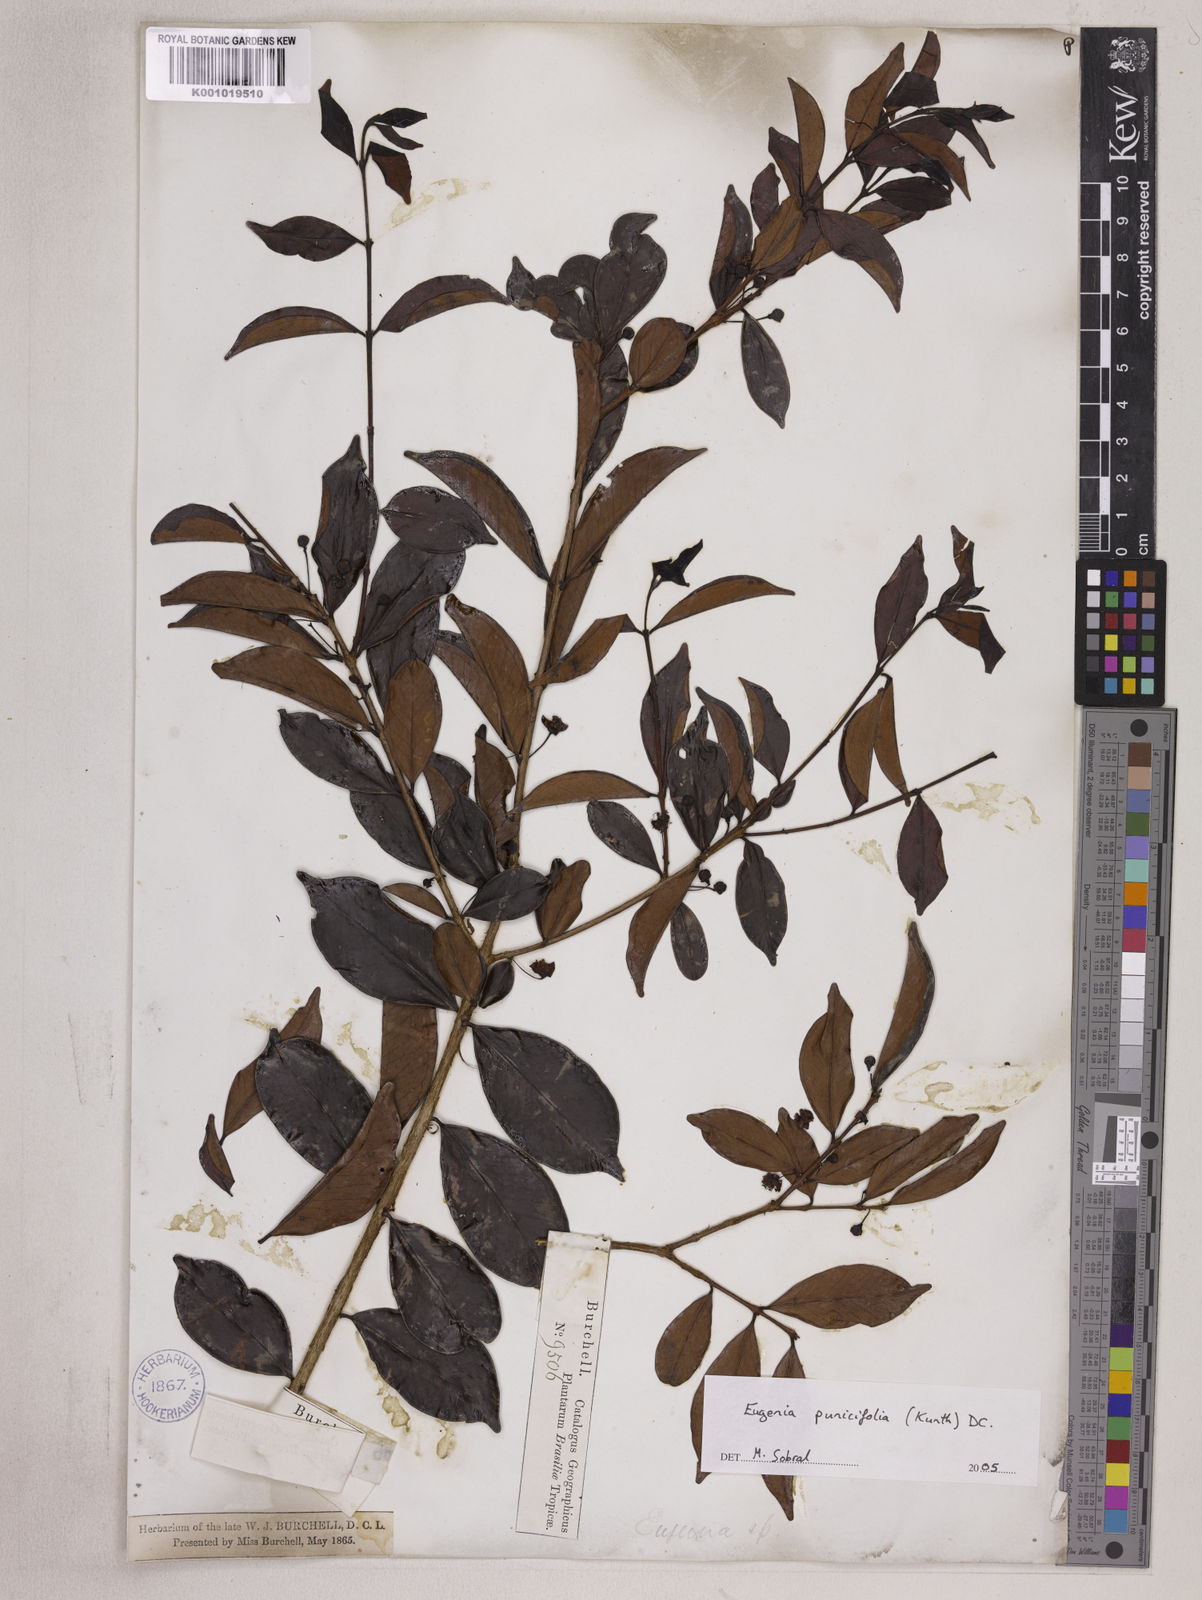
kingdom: Plantae
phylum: Tracheophyta
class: Magnoliopsida
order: Myrtales
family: Myrtaceae
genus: Eugenia
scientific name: Eugenia punicifolia
